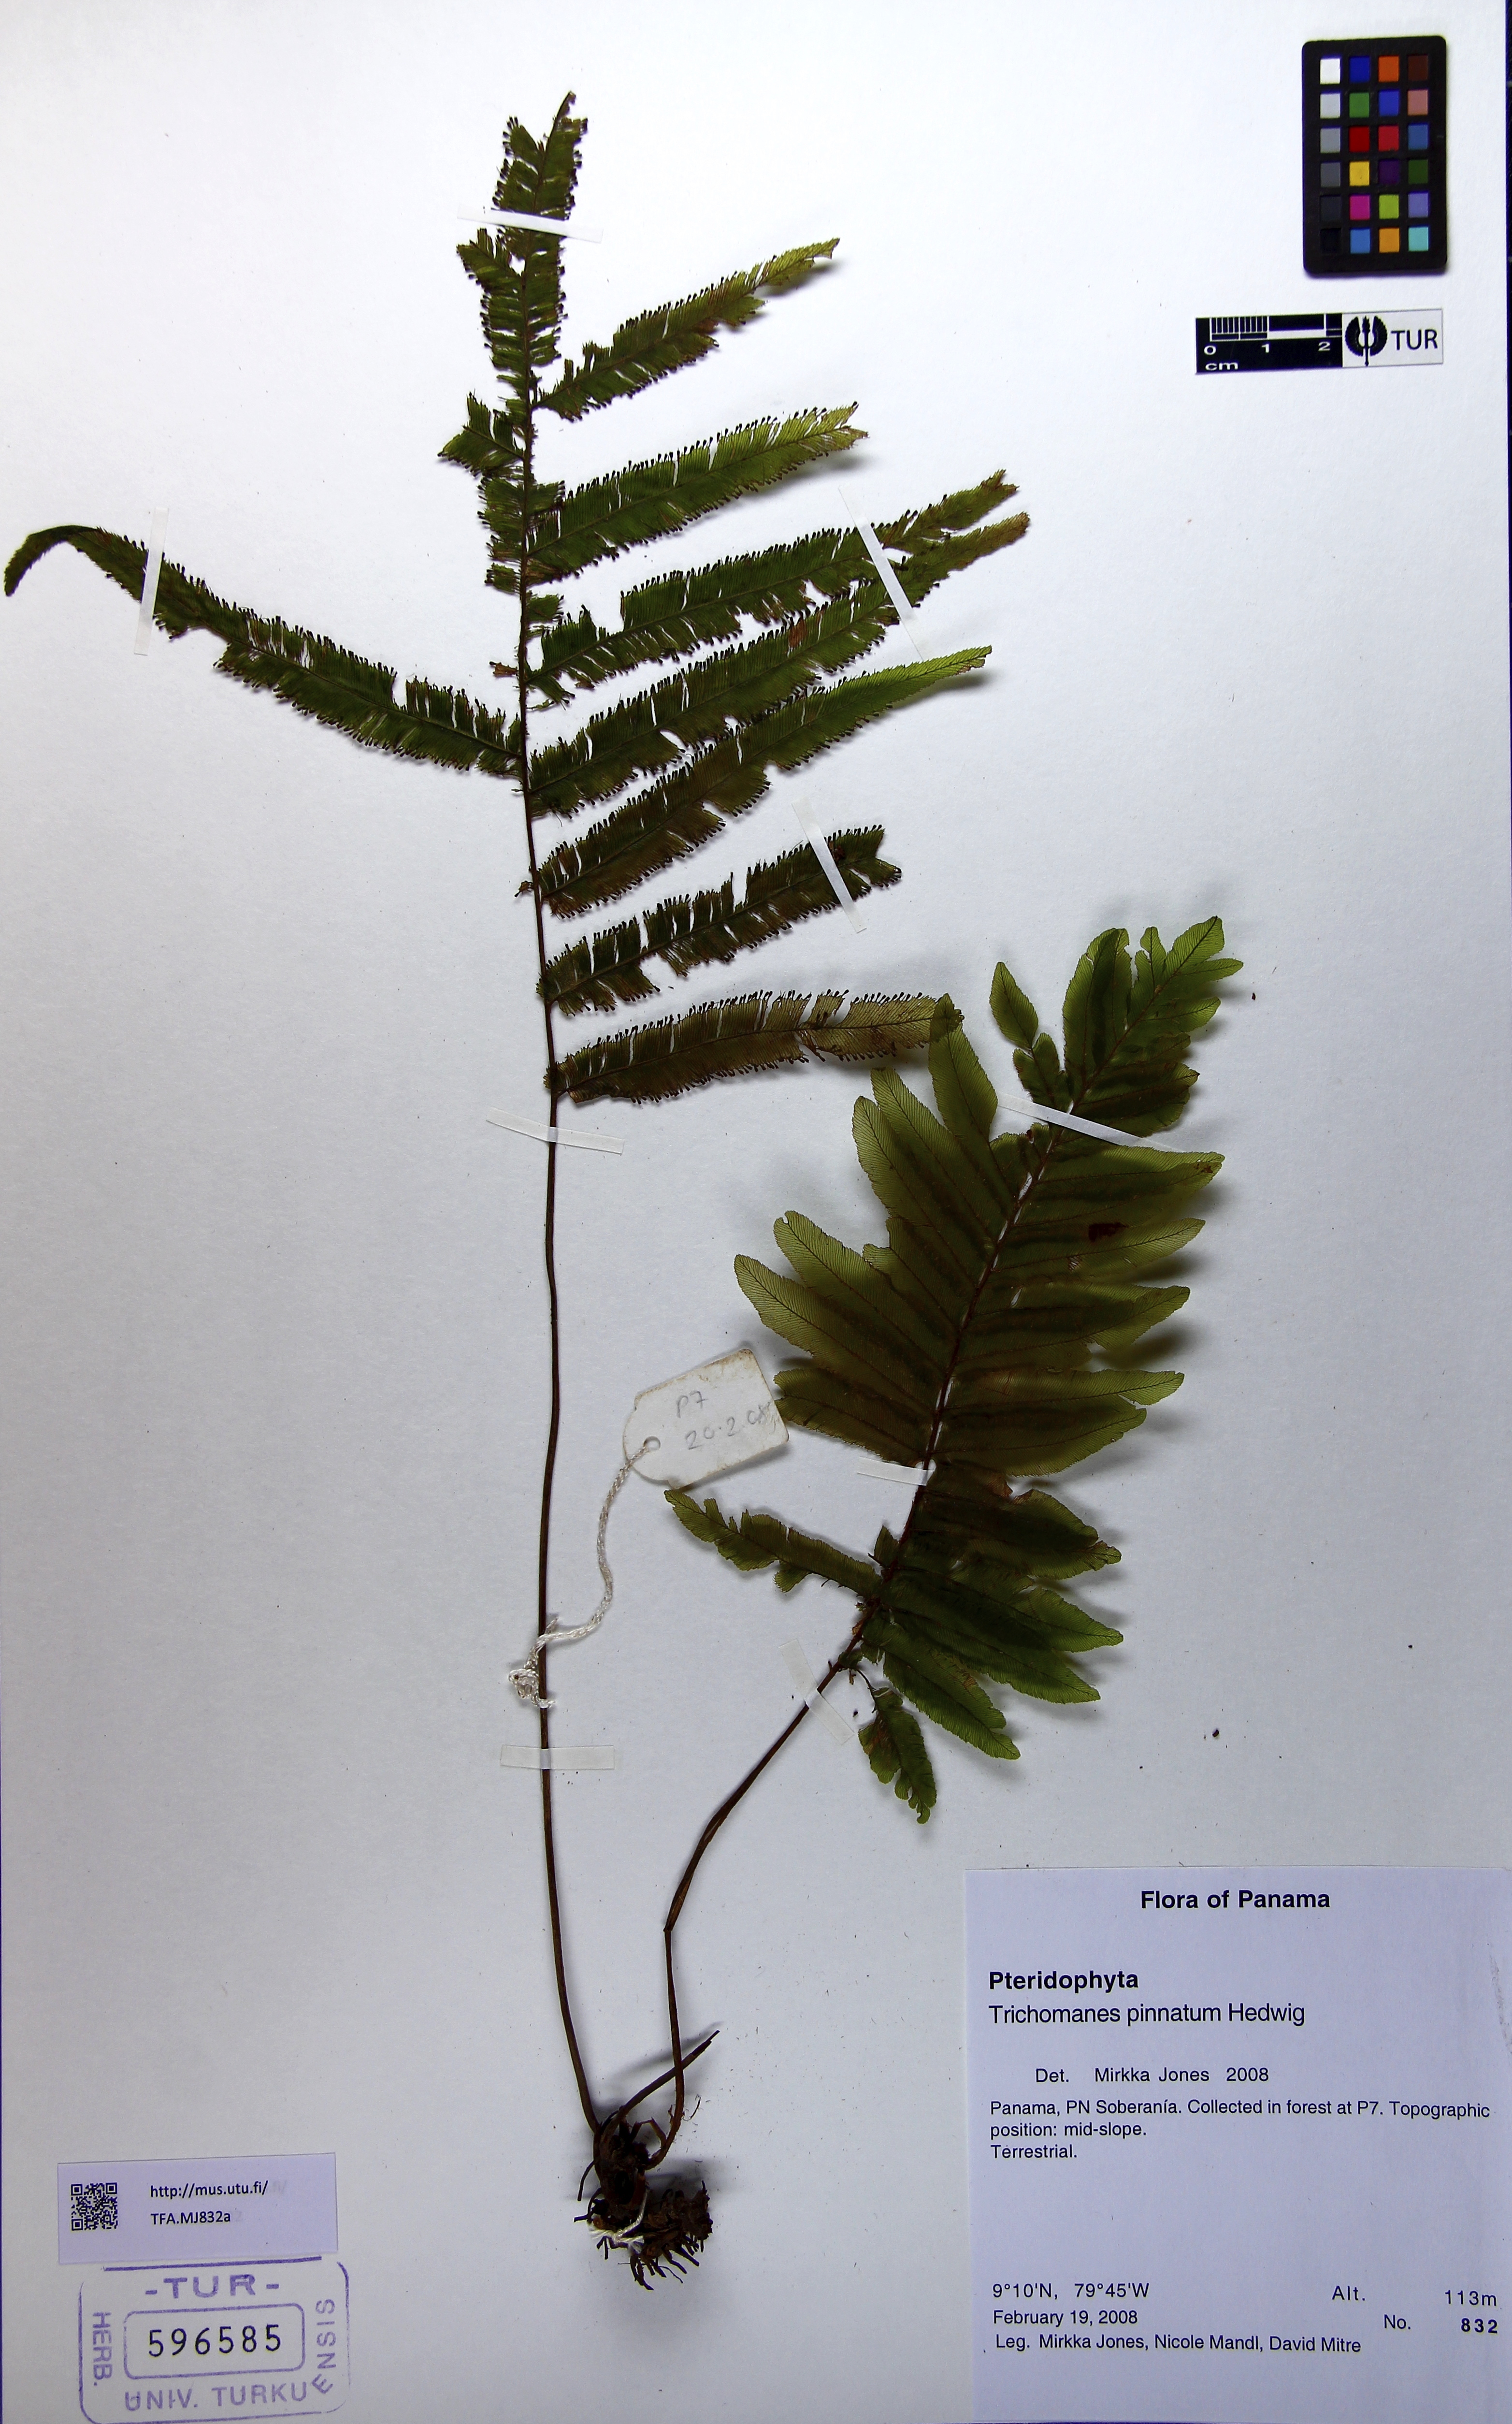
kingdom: Plantae
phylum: Tracheophyta
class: Polypodiopsida
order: Hymenophyllales
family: Hymenophyllaceae
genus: Trichomanes
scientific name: Trichomanes pinnatum
